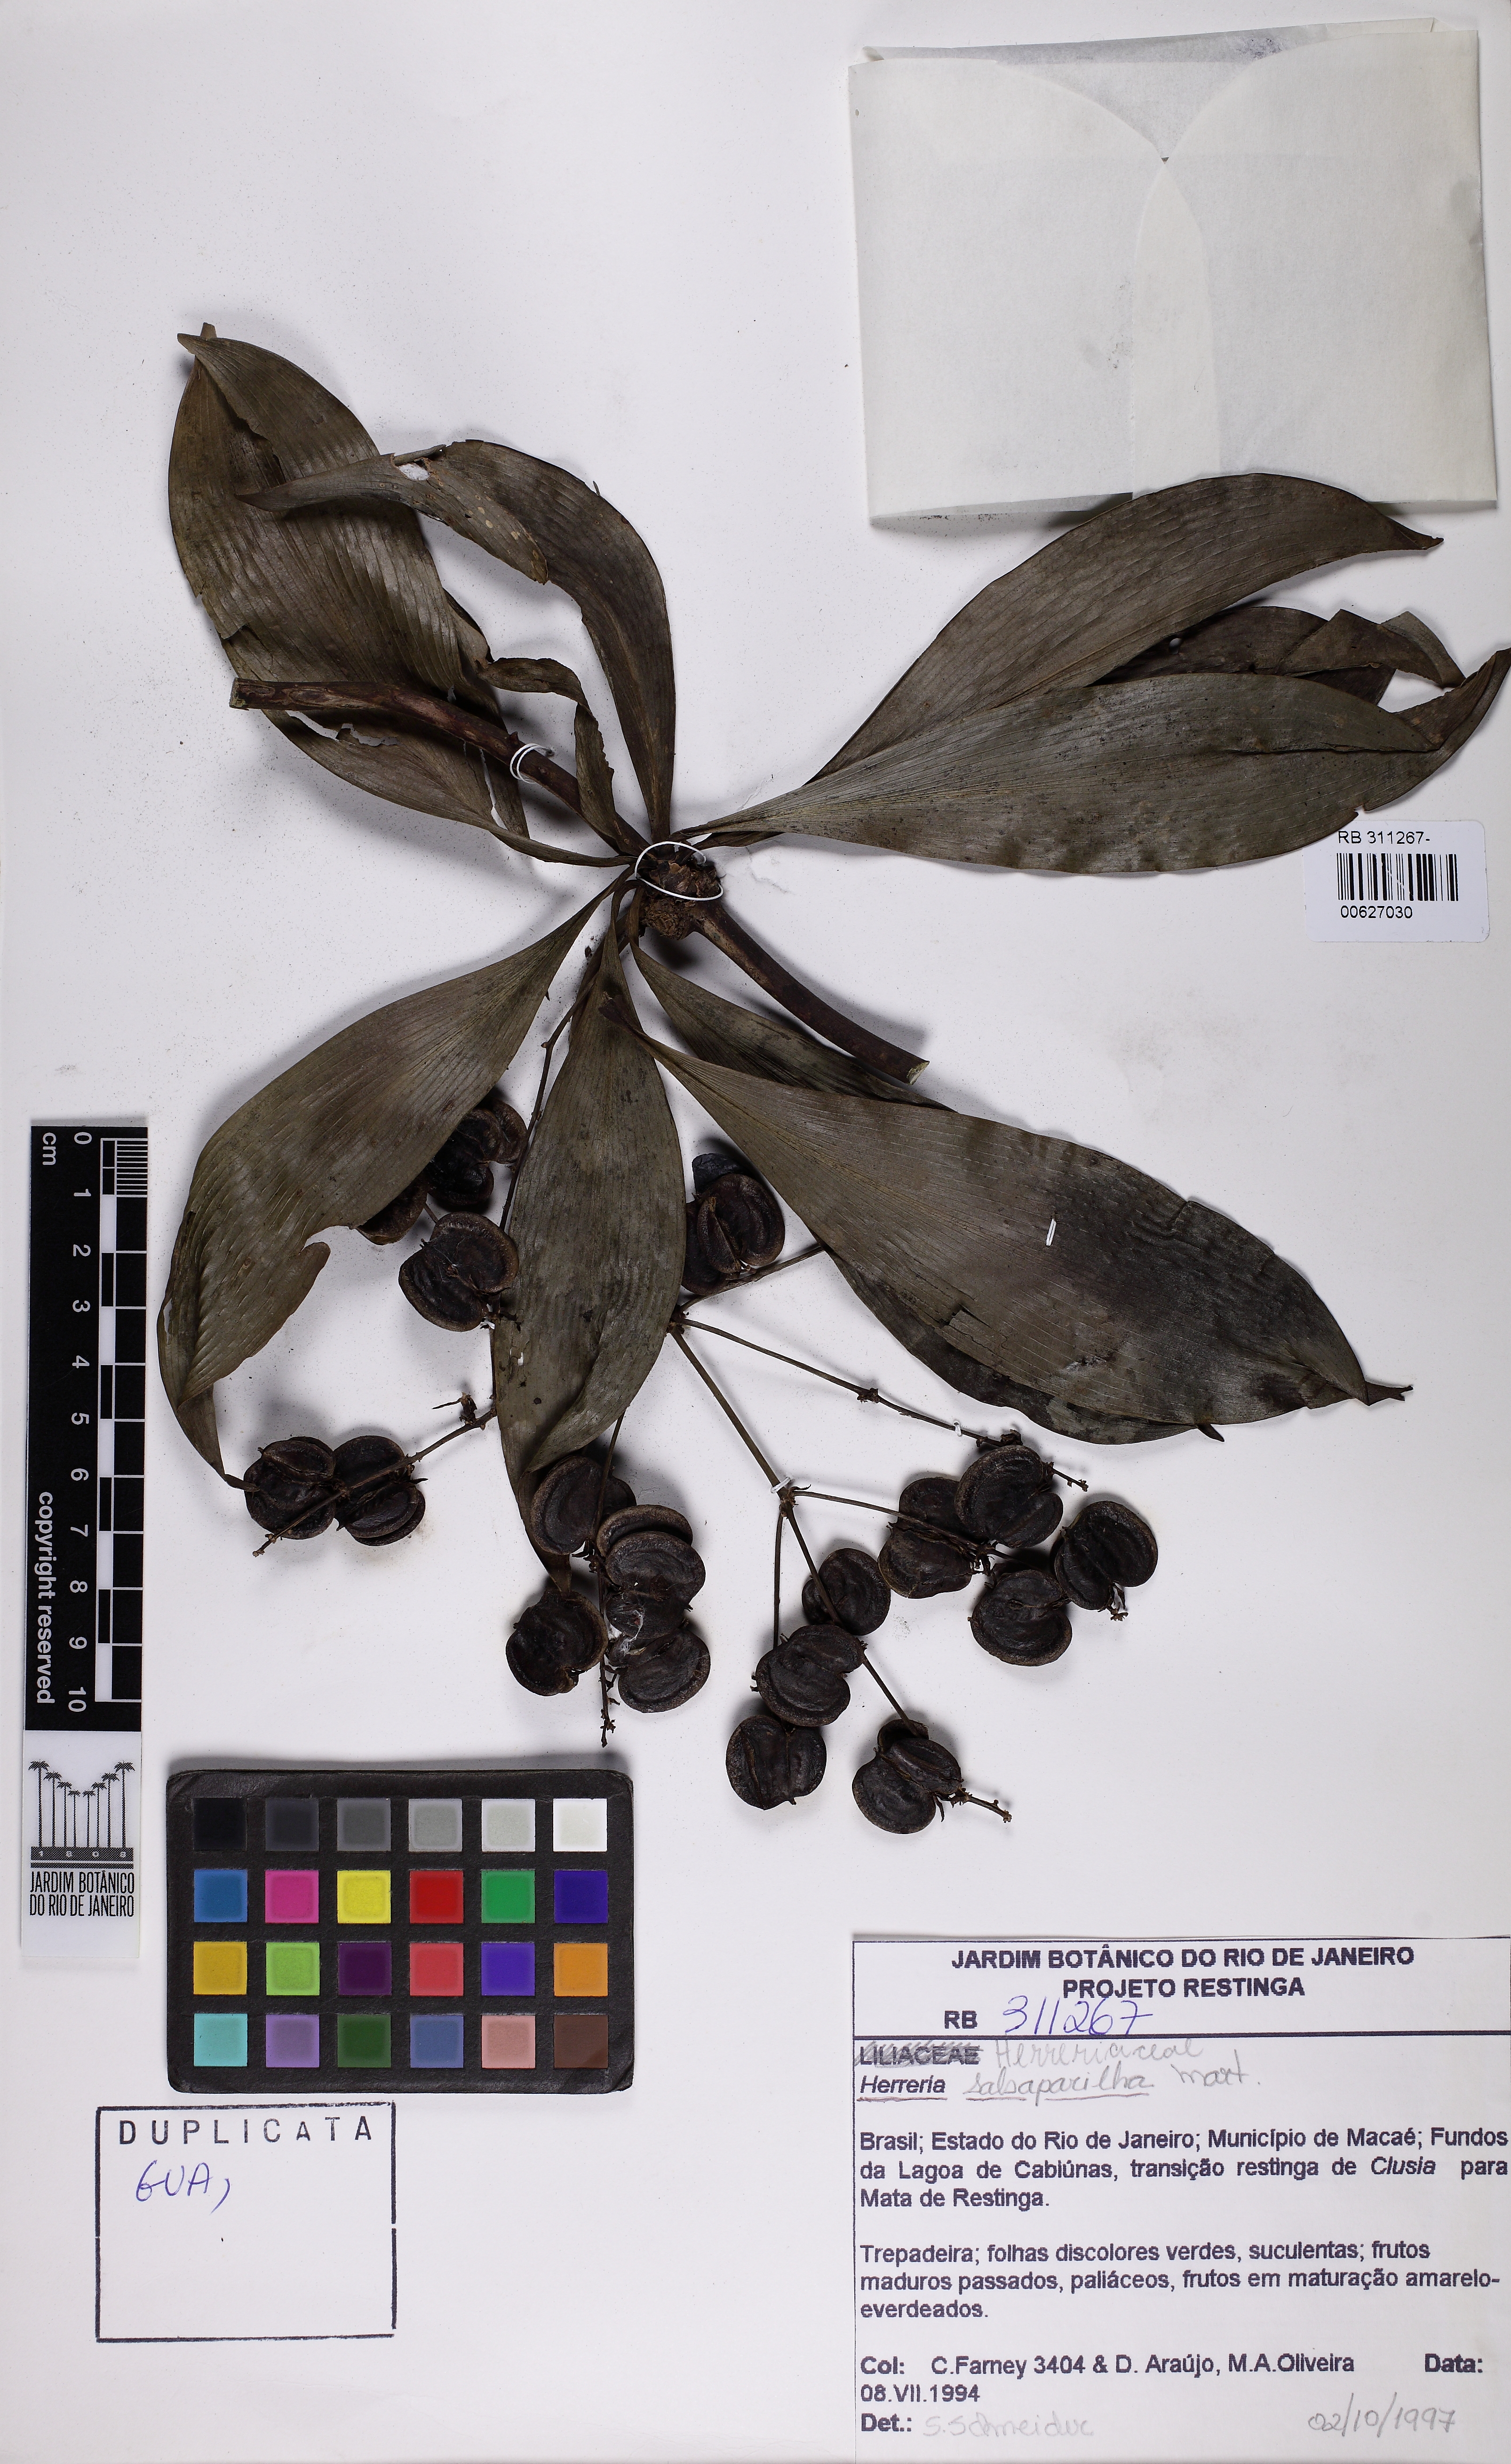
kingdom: Plantae
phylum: Tracheophyta
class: Liliopsida
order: Asparagales
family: Asparagaceae
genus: Herreria
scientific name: Herreria salsaparilha
